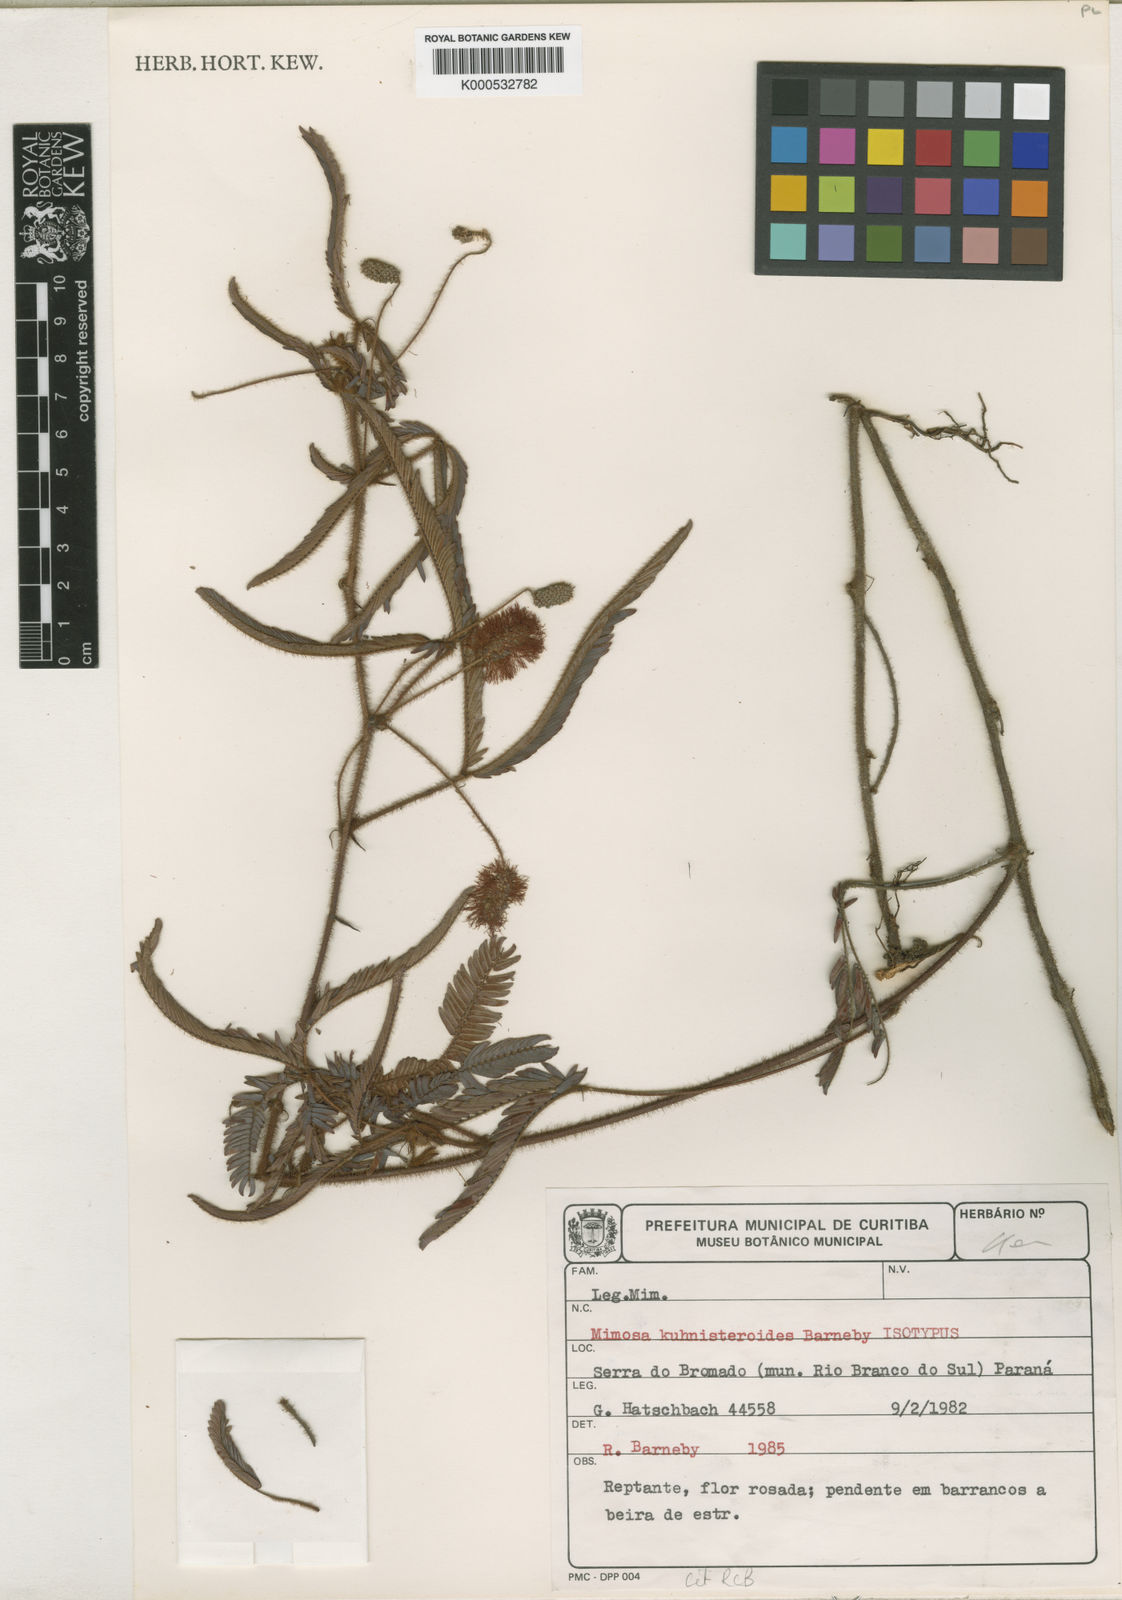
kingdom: Plantae
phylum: Tracheophyta
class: Magnoliopsida
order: Fabales
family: Fabaceae
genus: Mimosa
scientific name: Mimosa kuhnisteroides
